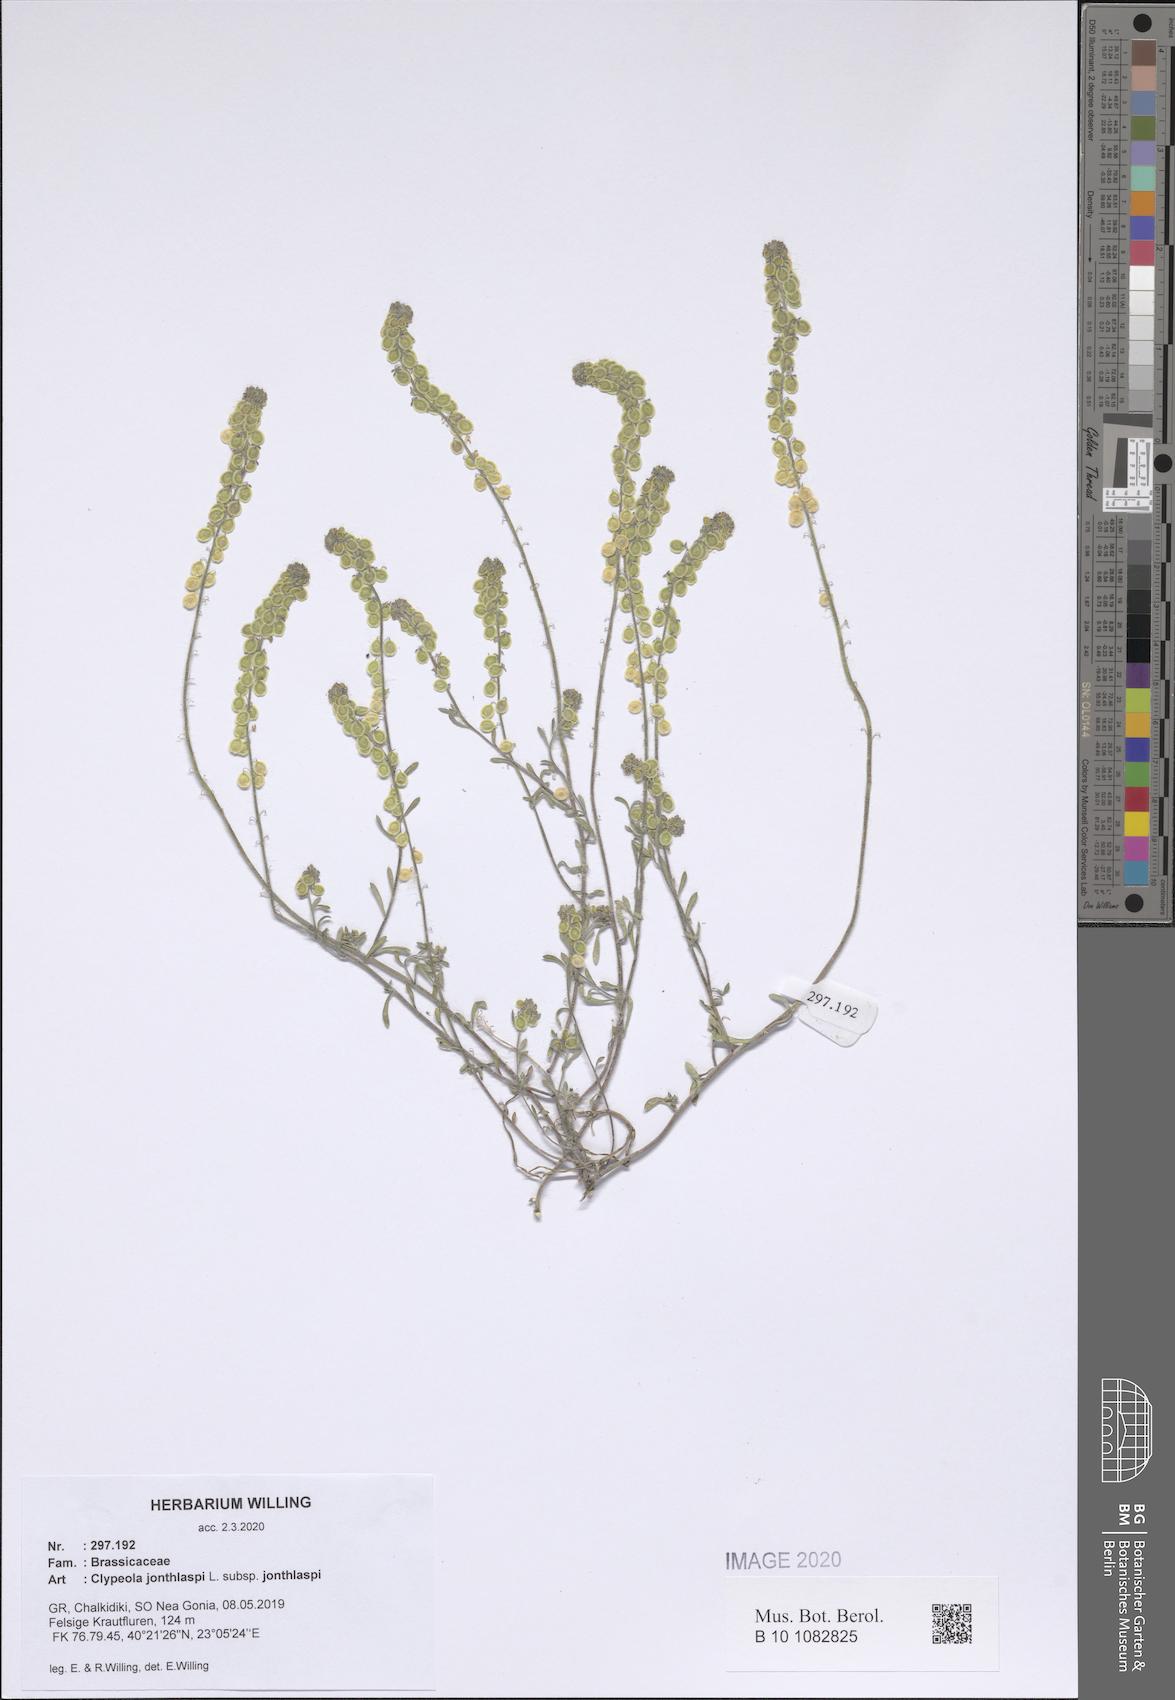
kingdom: Plantae
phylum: Tracheophyta
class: Magnoliopsida
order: Brassicales
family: Brassicaceae
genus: Clypeola
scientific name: Clypeola jonthlaspi
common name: Disk cress
